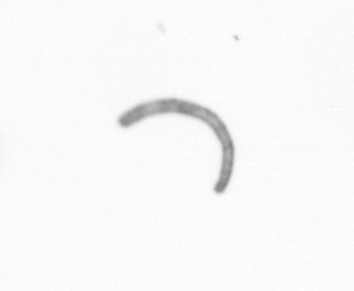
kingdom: Chromista
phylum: Ochrophyta
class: Bacillariophyceae
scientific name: Bacillariophyceae
